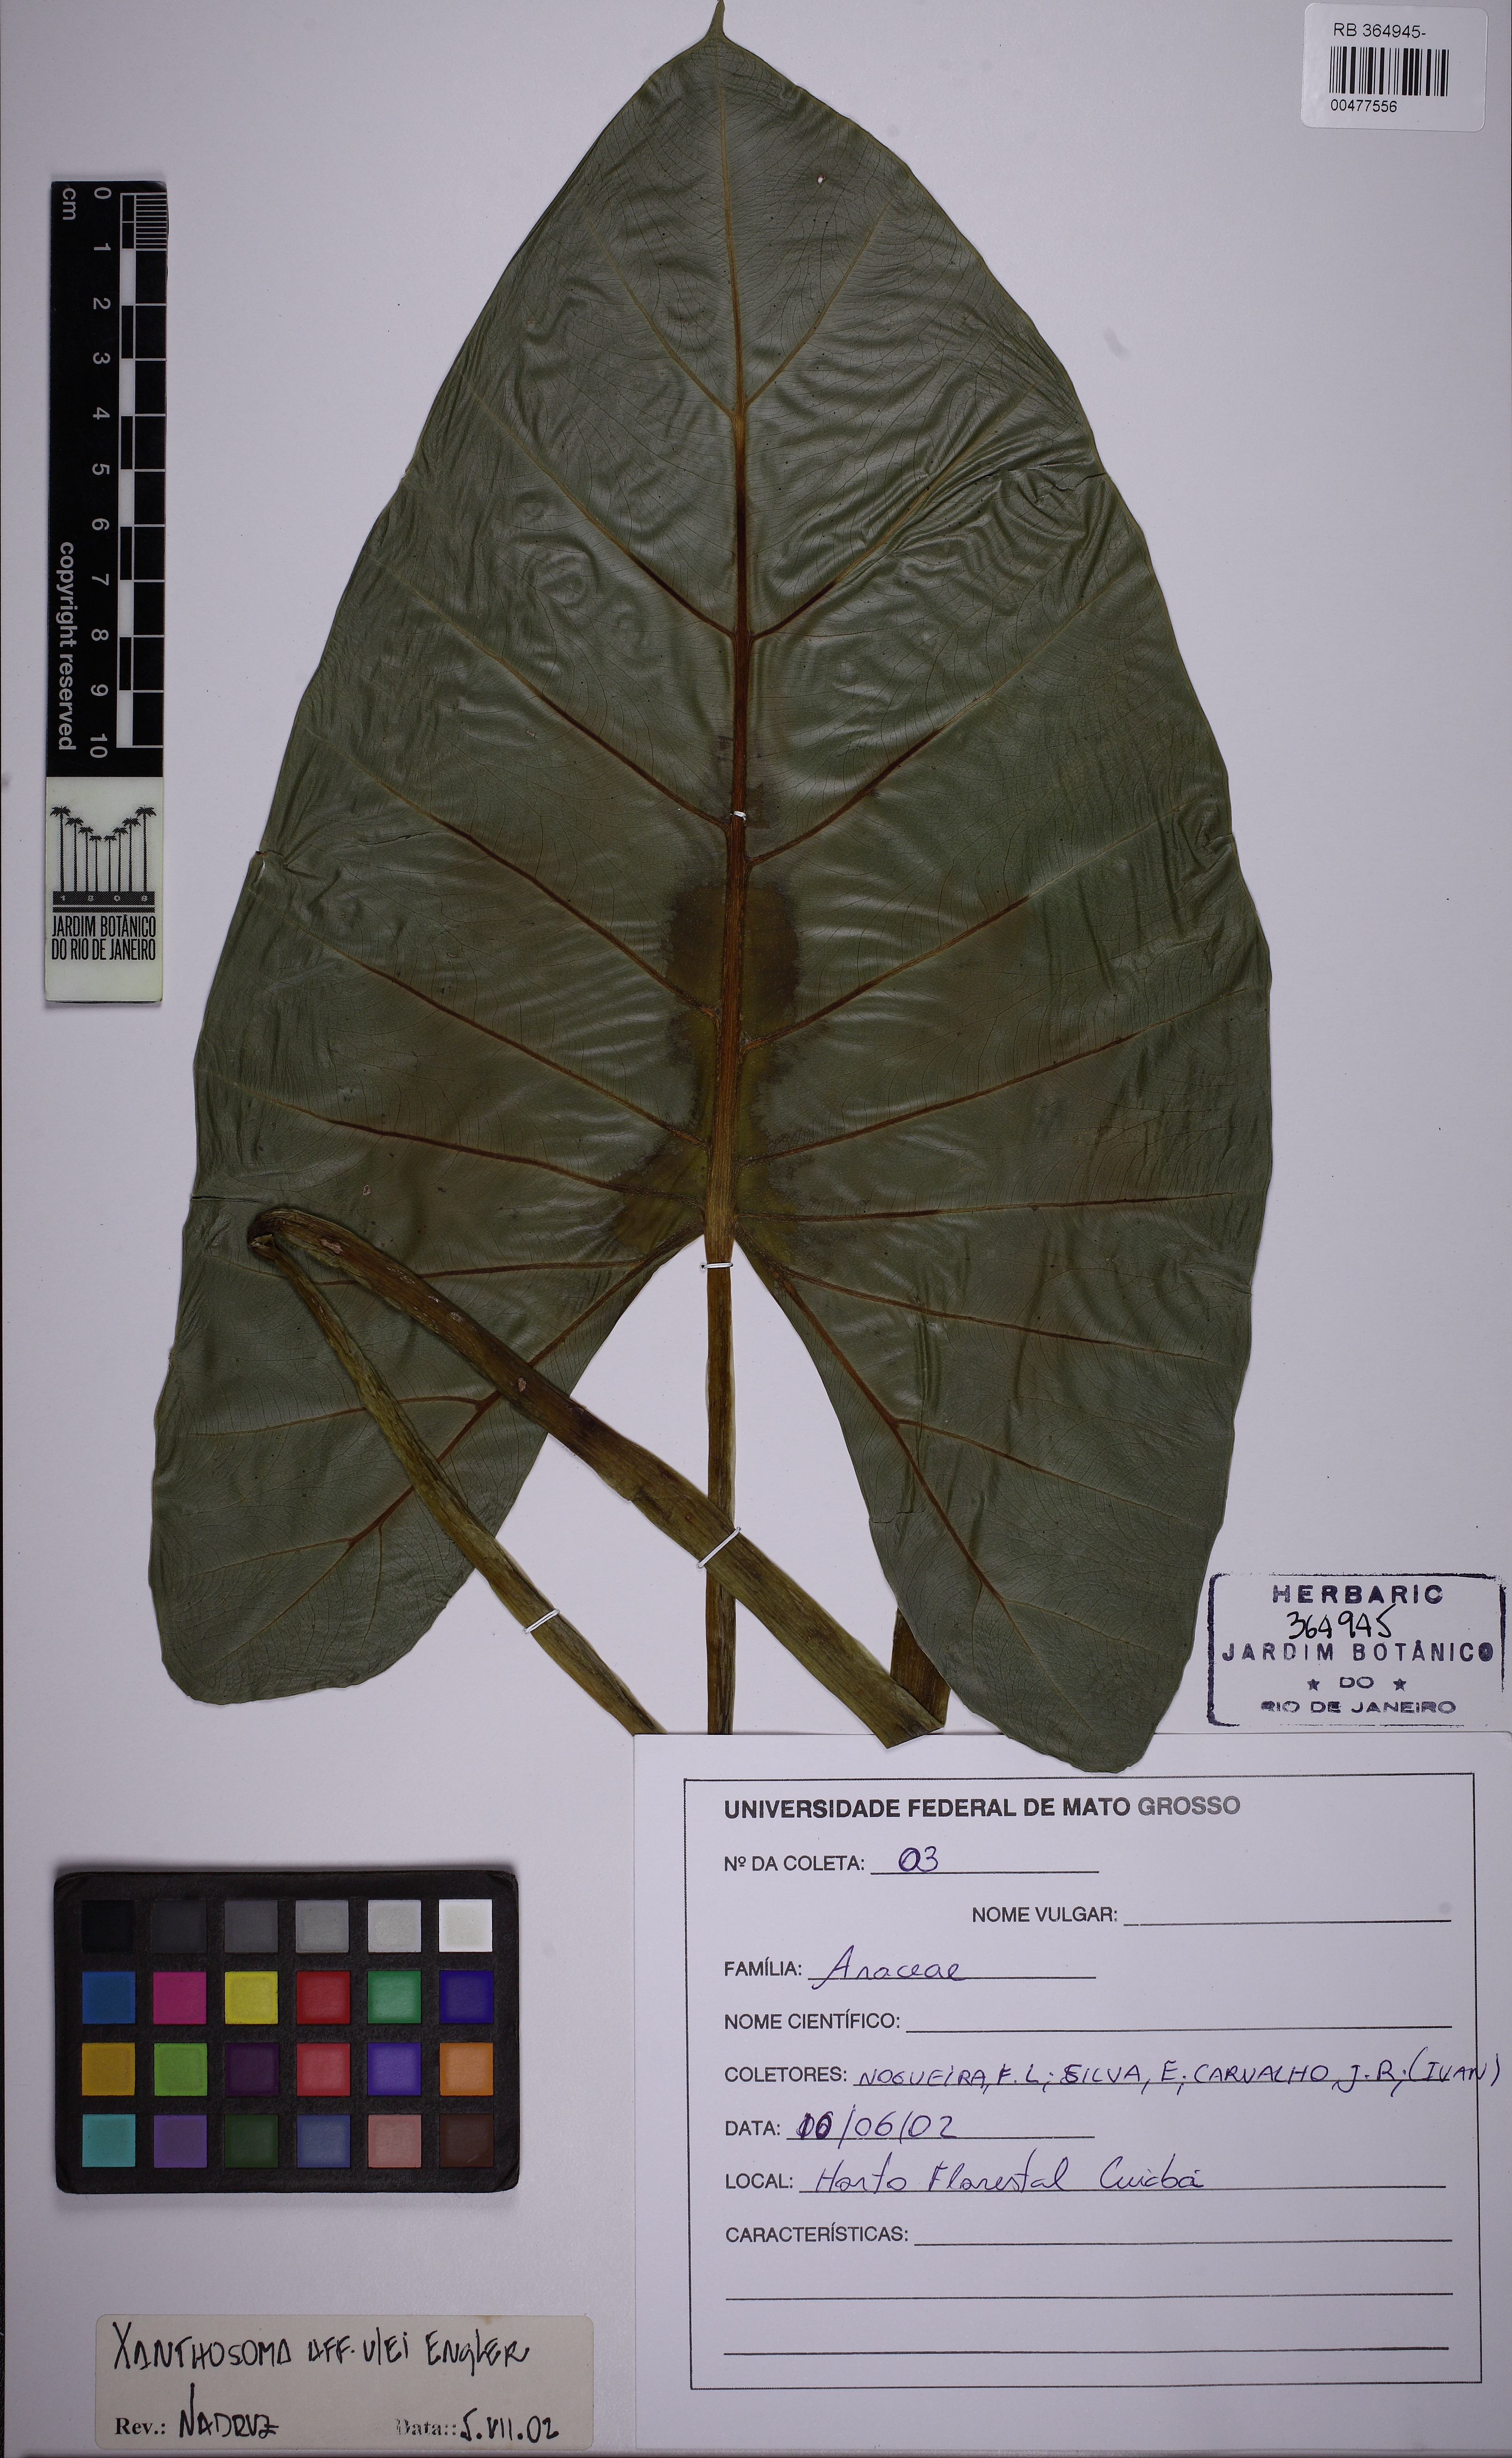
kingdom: Plantae
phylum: Tracheophyta
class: Liliopsida
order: Alismatales
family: Araceae
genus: Xanthosoma
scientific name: Xanthosoma ulei
